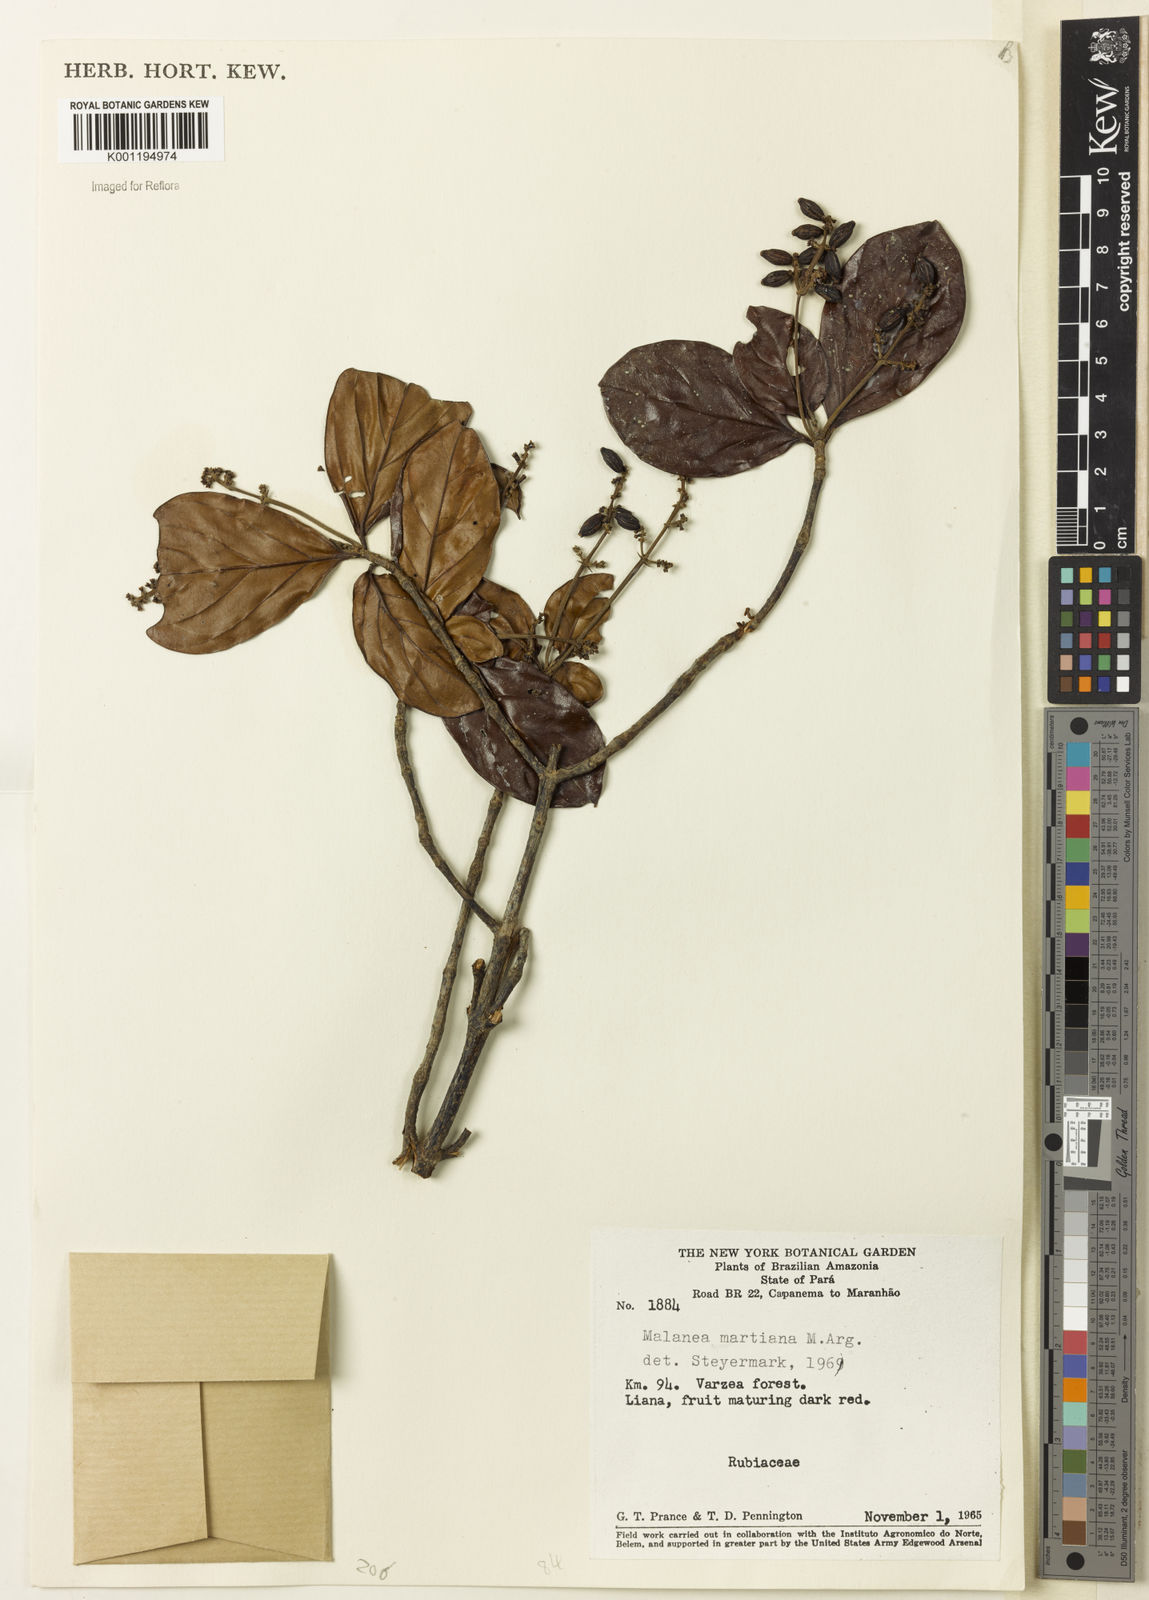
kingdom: Plantae
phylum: Tracheophyta
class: Magnoliopsida
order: Gentianales
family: Rubiaceae
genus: Malanea
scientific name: Malanea
